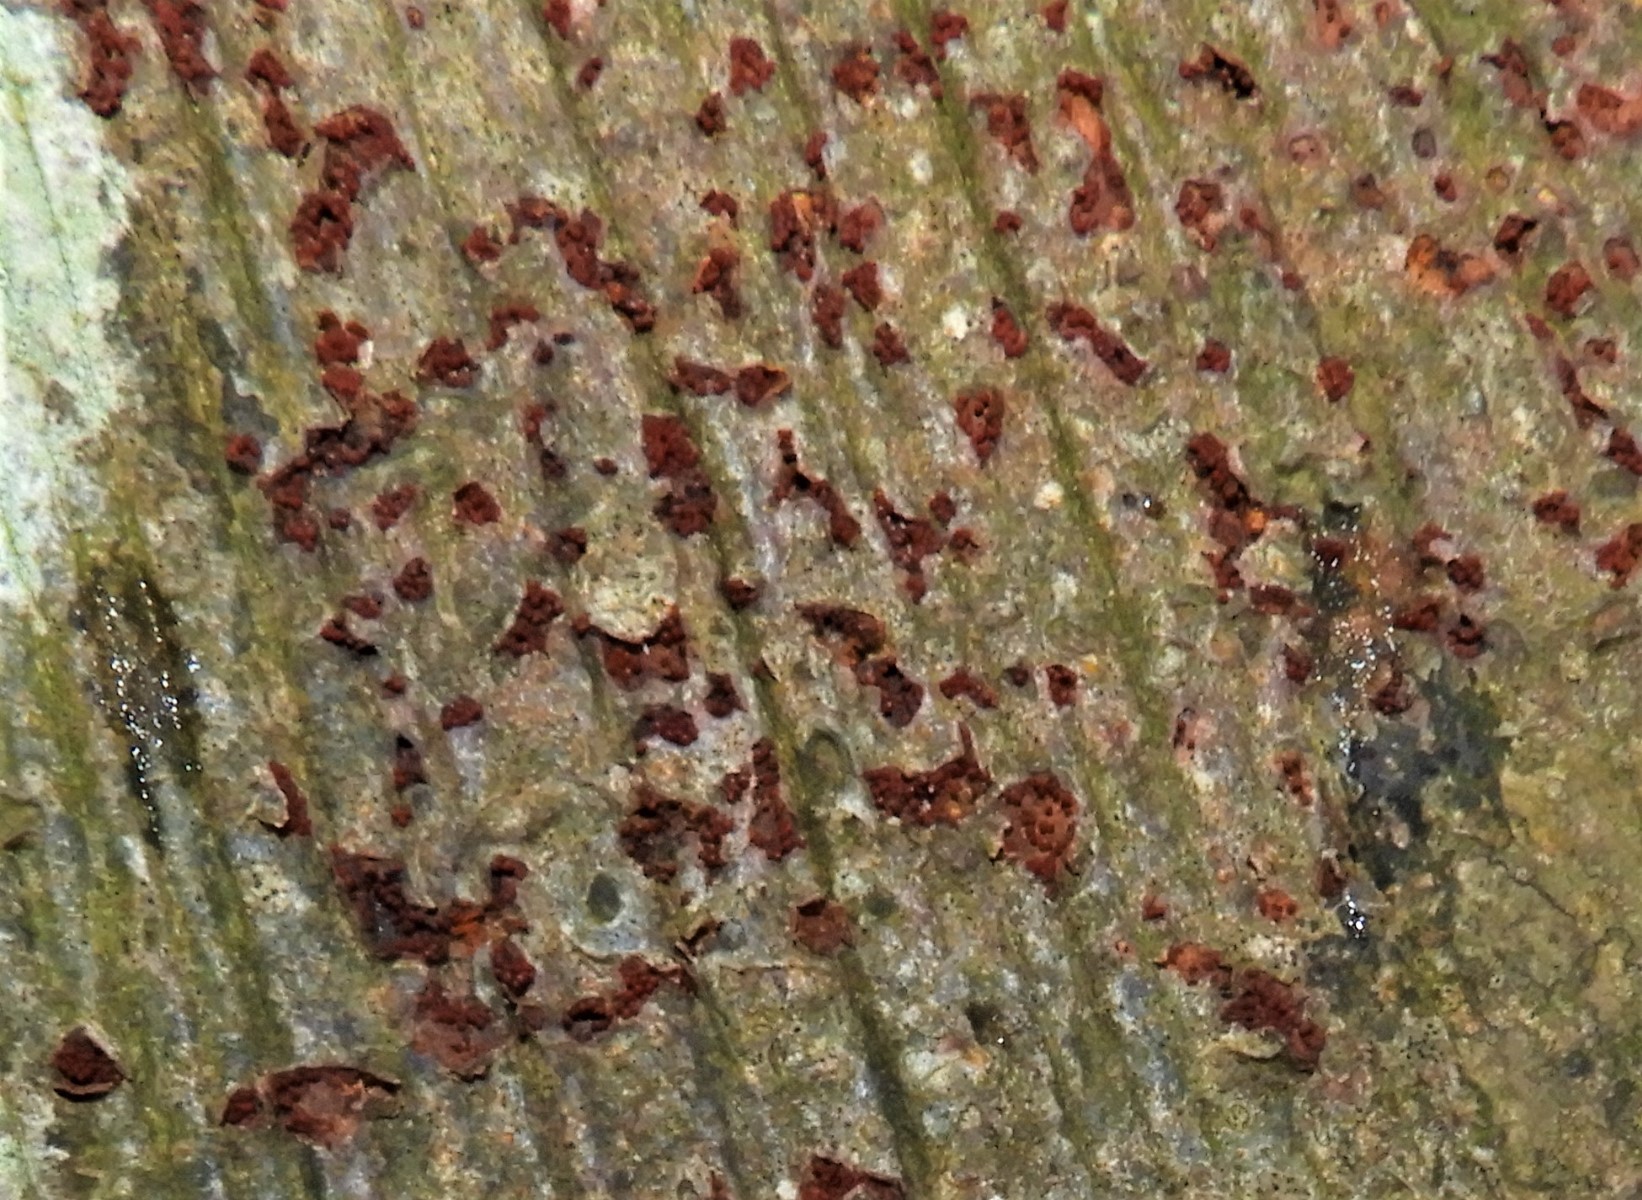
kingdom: Fungi
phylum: Ascomycota
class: Sordariomycetes
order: Hypocreales
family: Nectriaceae
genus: Neonectria
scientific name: Neonectria coccinea
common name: bøgebark-cinnobersvamp
